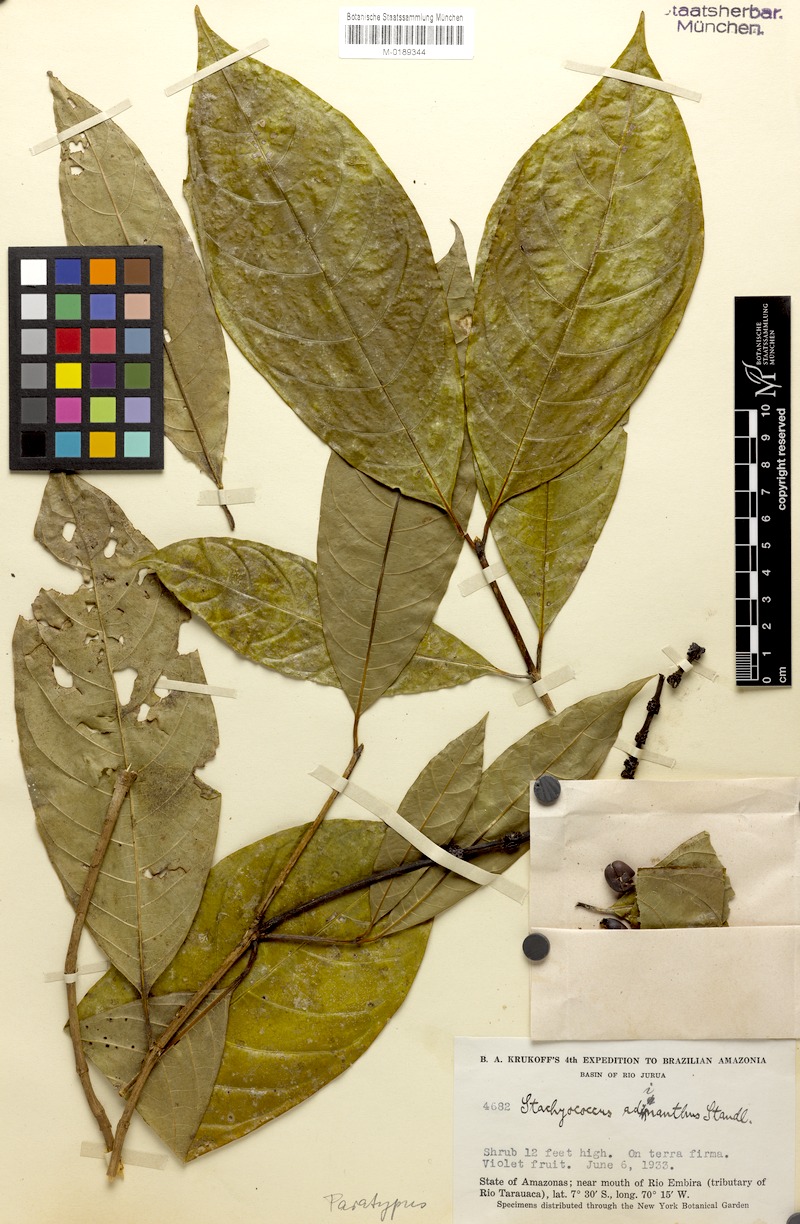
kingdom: Plantae
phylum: Tracheophyta
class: Magnoliopsida
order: Gentianales
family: Rubiaceae
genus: Carapichea
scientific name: Carapichea adinantha
